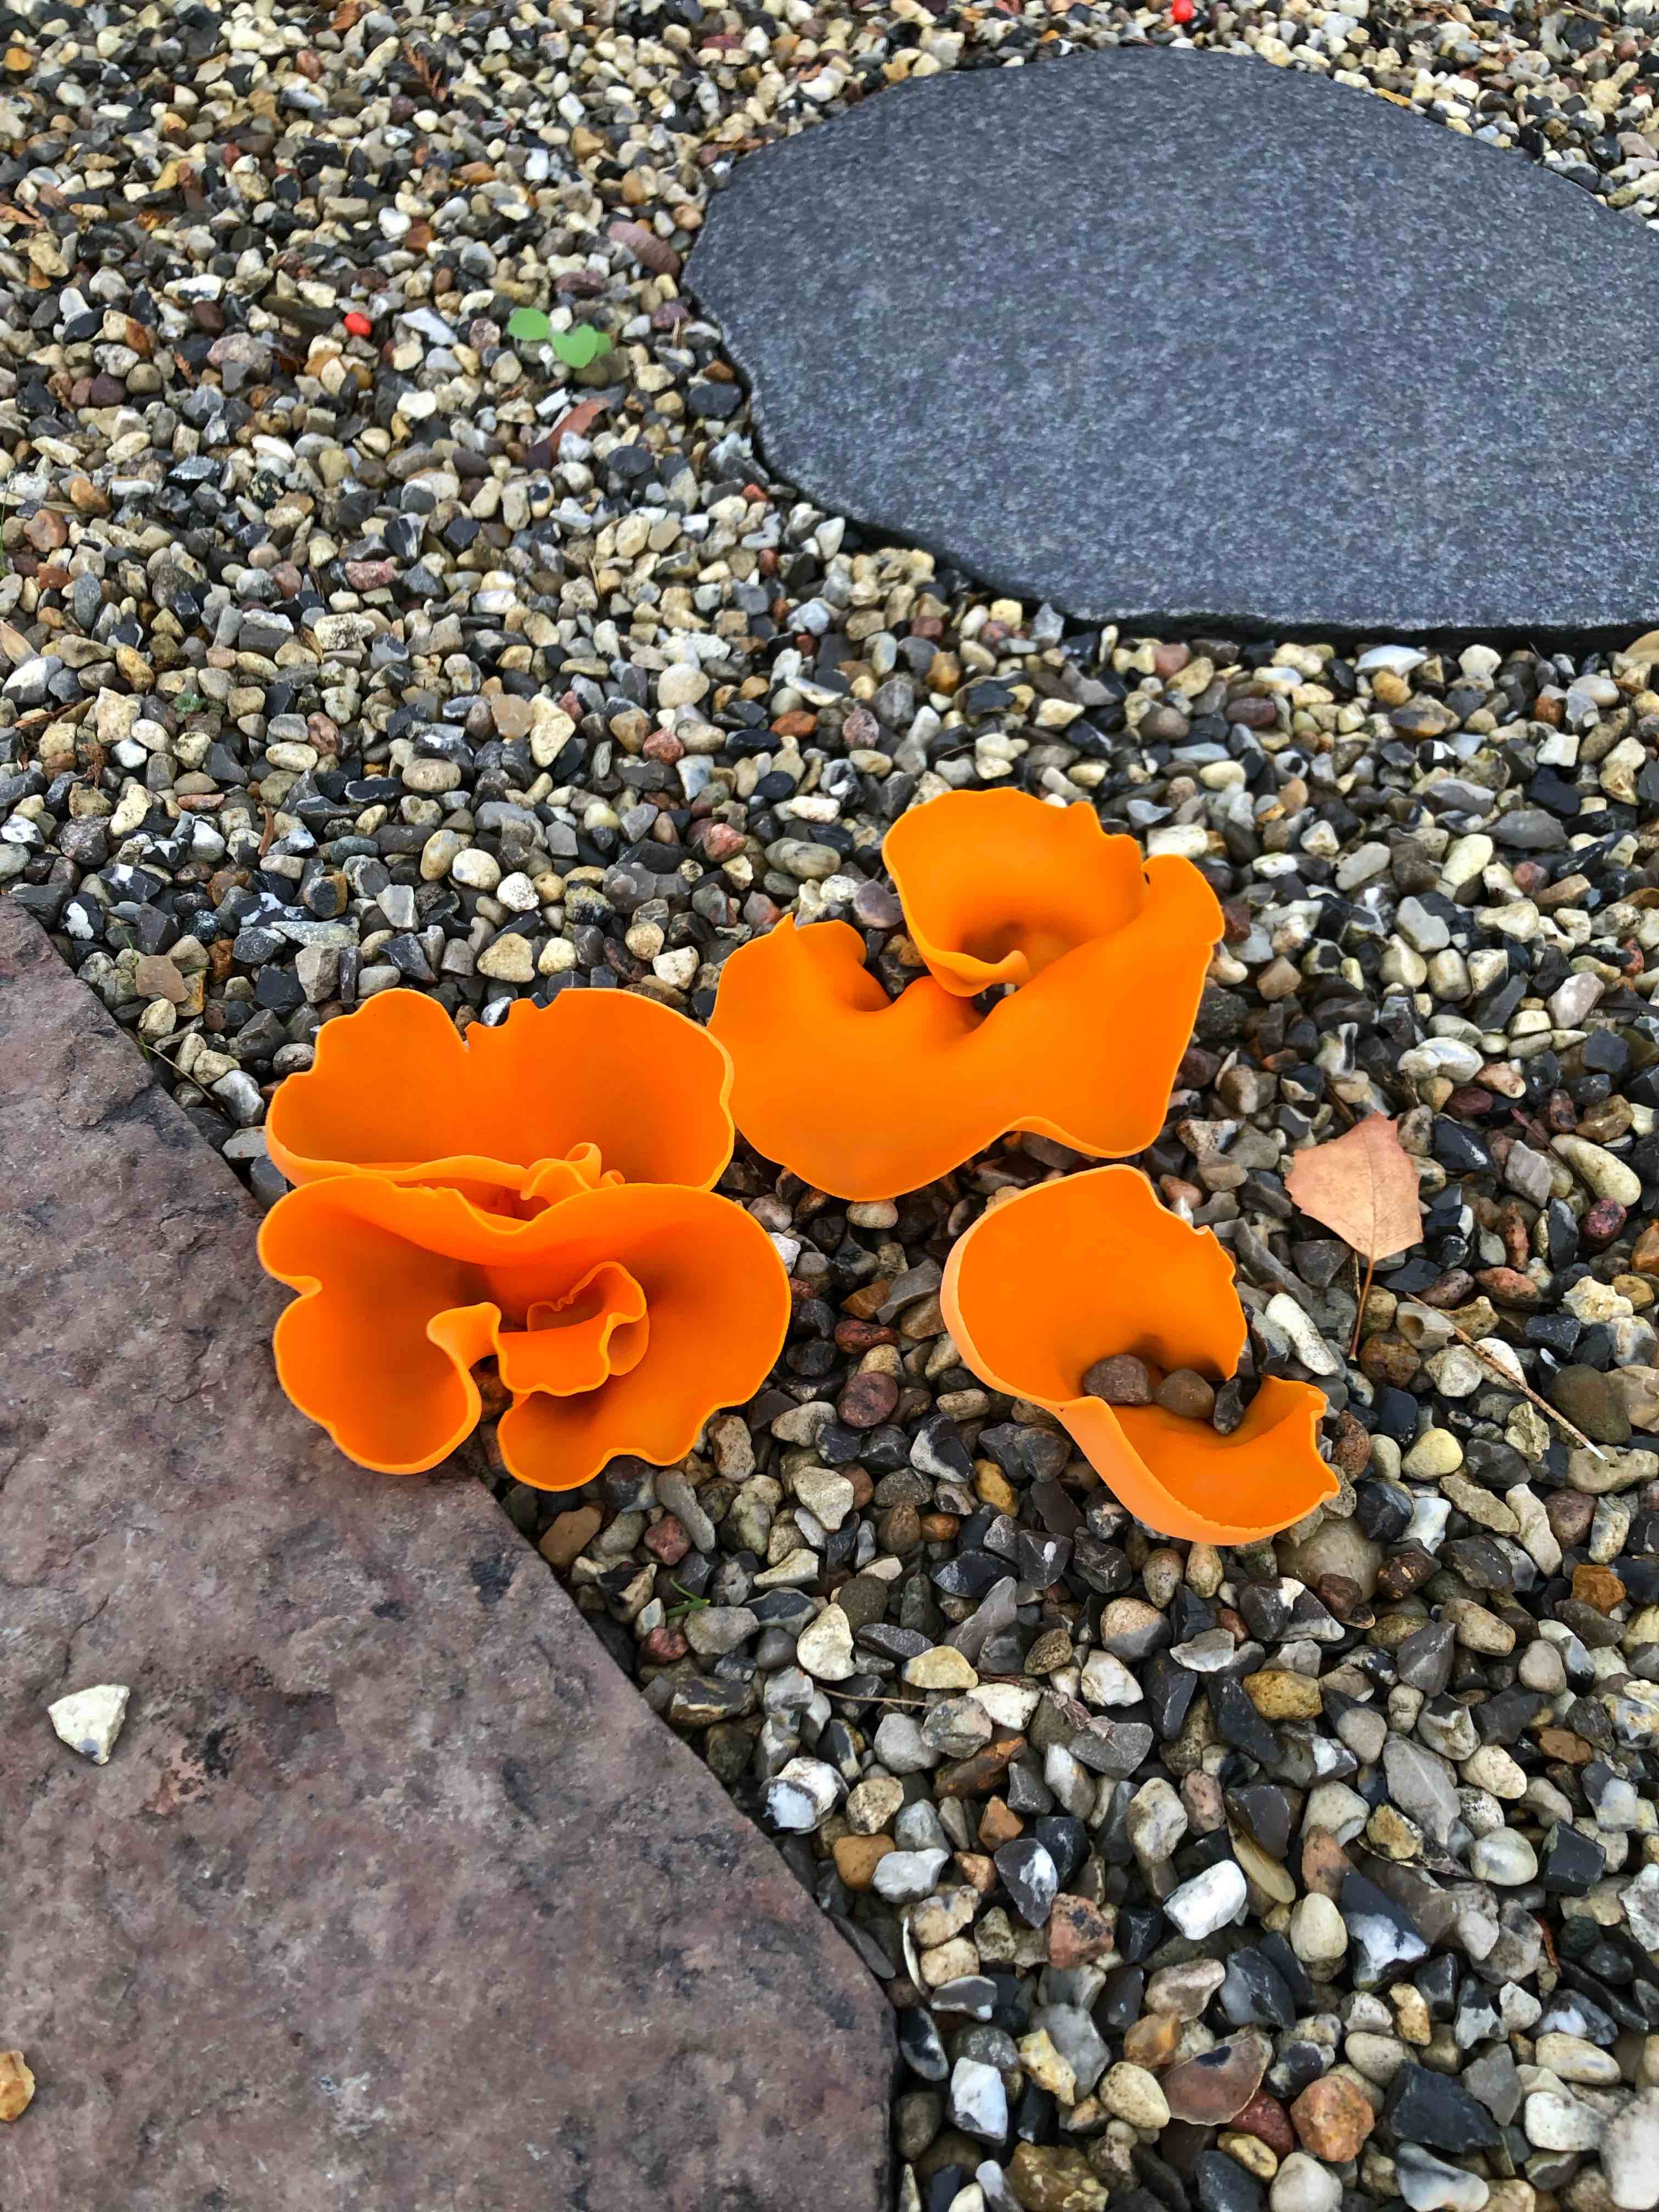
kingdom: Fungi
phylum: Ascomycota
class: Pezizomycetes
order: Pezizales
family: Pyronemataceae
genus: Aleuria
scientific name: Aleuria aurantia
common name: almindelig orangebæger
